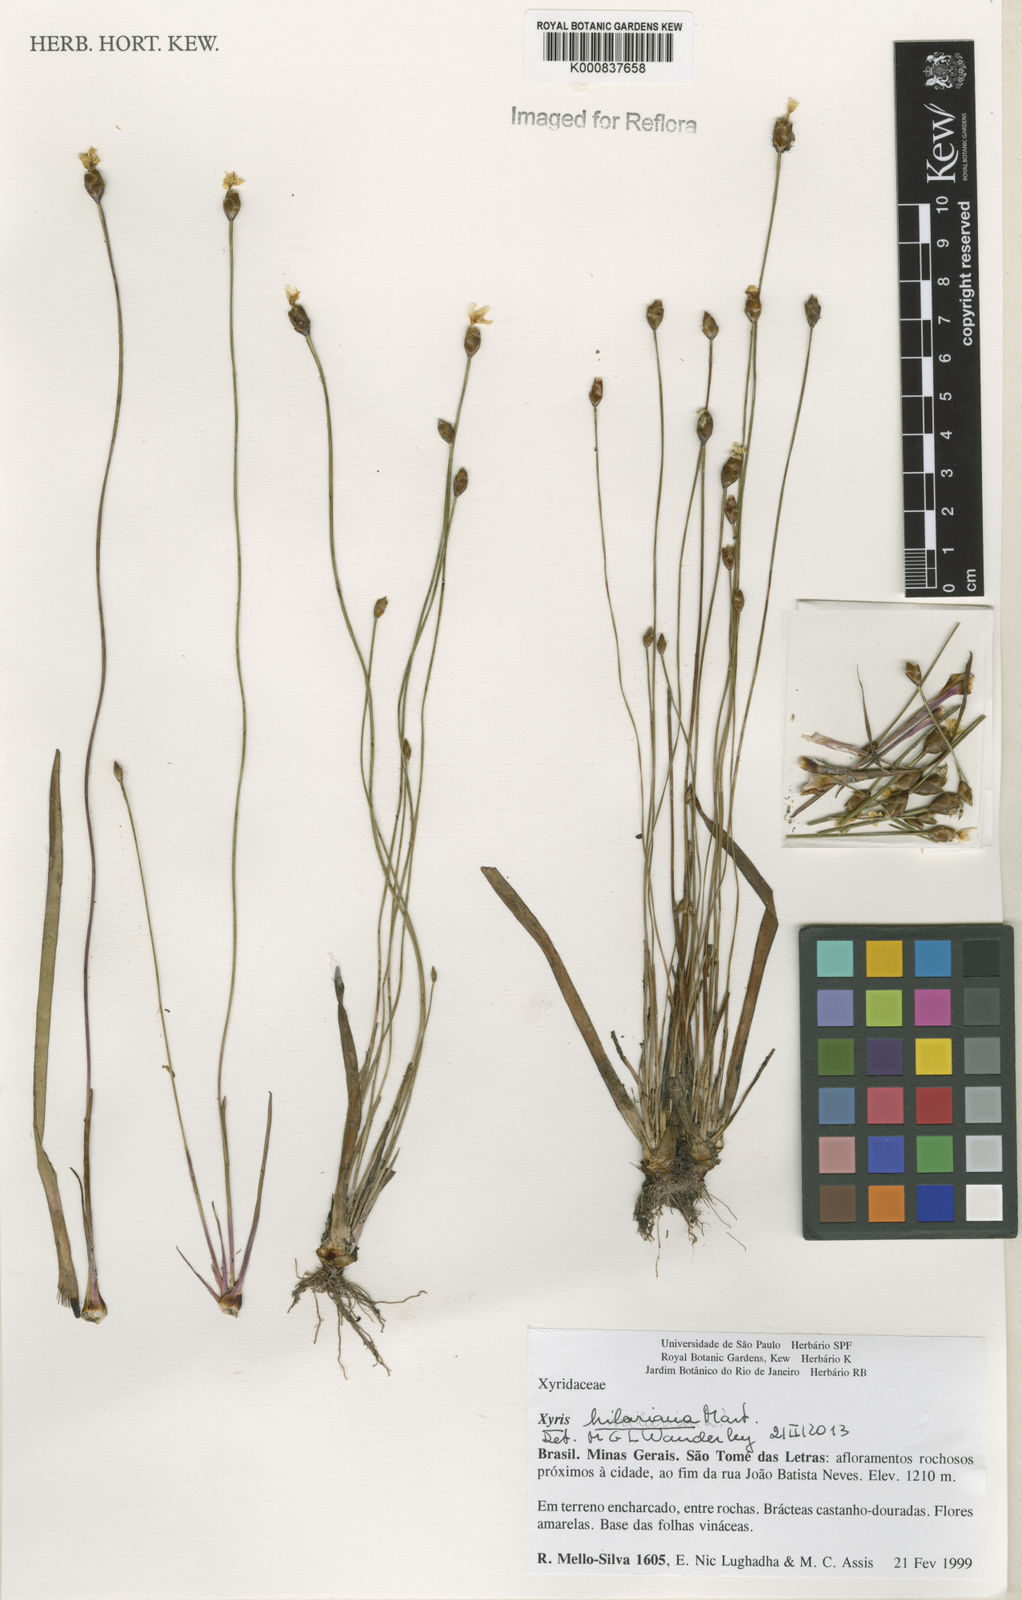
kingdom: Plantae
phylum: Tracheophyta
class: Liliopsida
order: Poales
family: Xyridaceae
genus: Xyris
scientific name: Xyris hilariana
